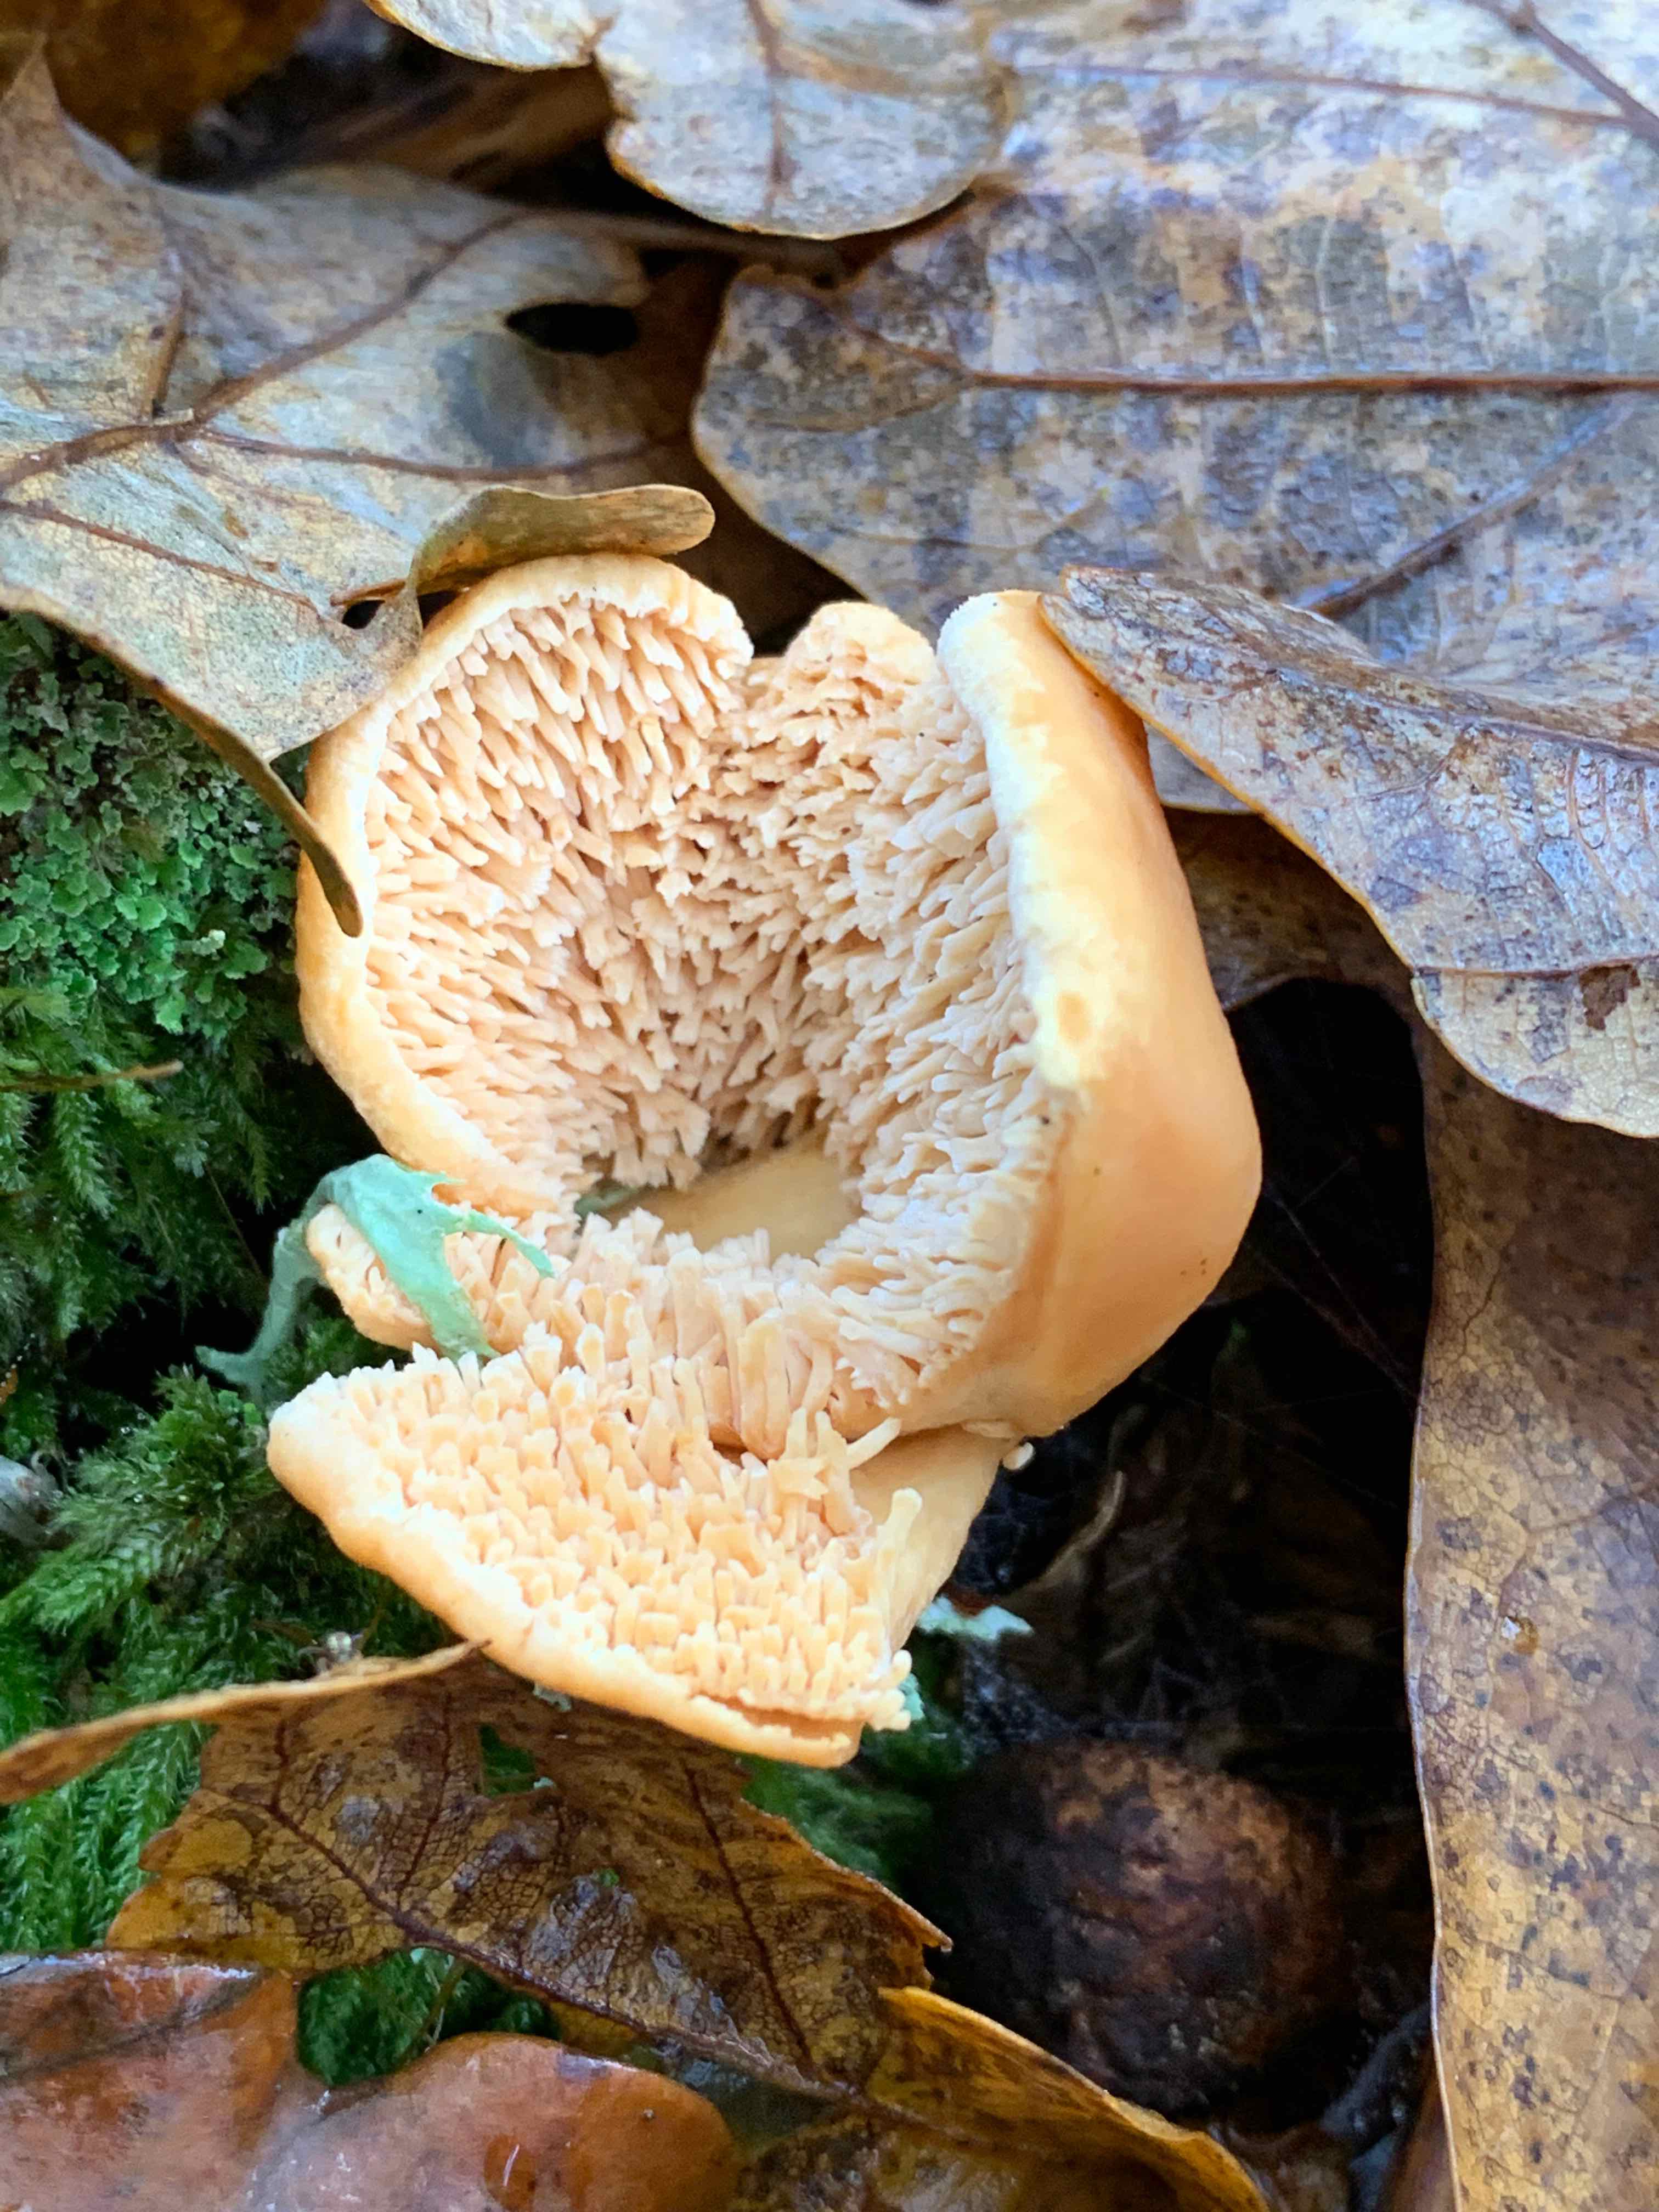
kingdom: Fungi
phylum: Basidiomycota
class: Agaricomycetes
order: Cantharellales
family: Hydnaceae
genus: Hydnum
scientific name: Hydnum
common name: pigsvamp
